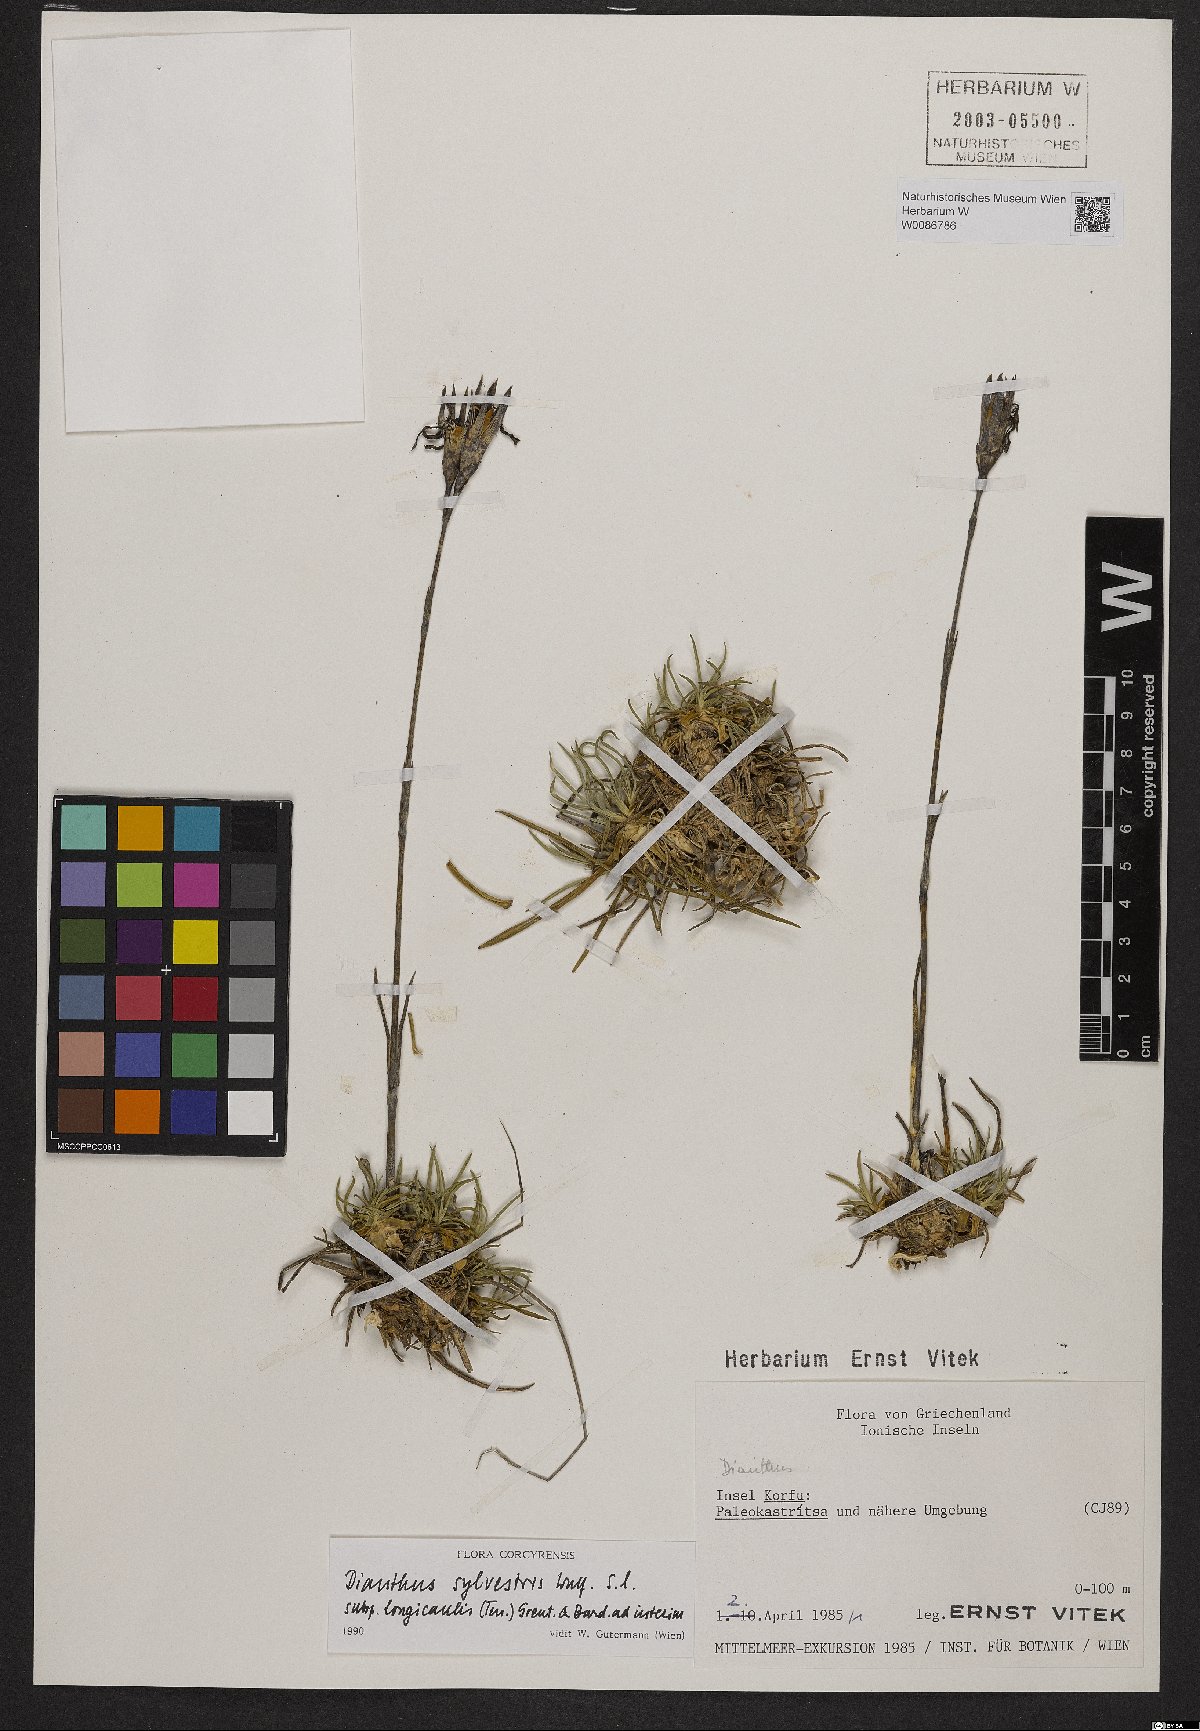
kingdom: Plantae
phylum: Tracheophyta
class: Magnoliopsida
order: Caryophyllales
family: Caryophyllaceae
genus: Dianthus
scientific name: Dianthus virgineus
